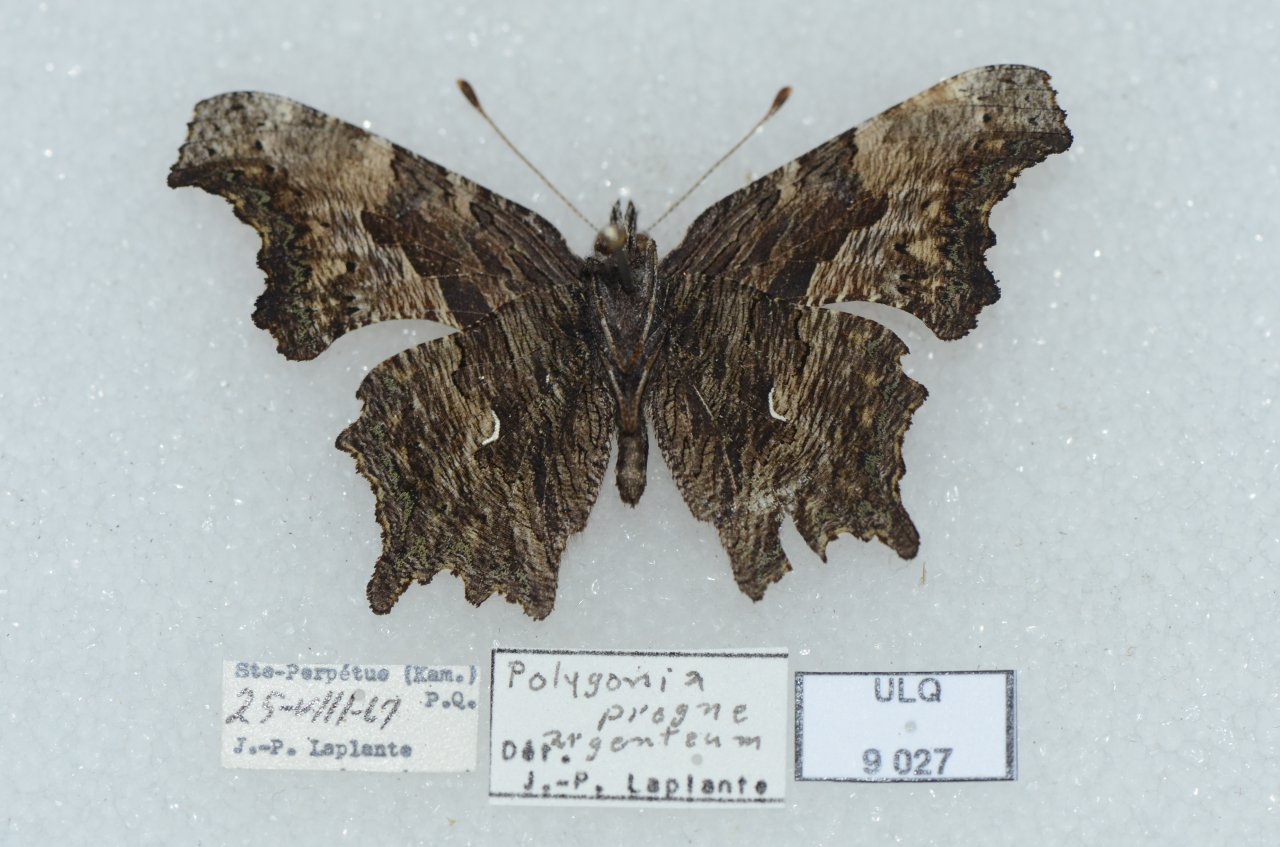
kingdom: Animalia
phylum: Arthropoda
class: Insecta
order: Lepidoptera
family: Nymphalidae
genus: Polygonia
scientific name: Polygonia progne
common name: Gray Comma
